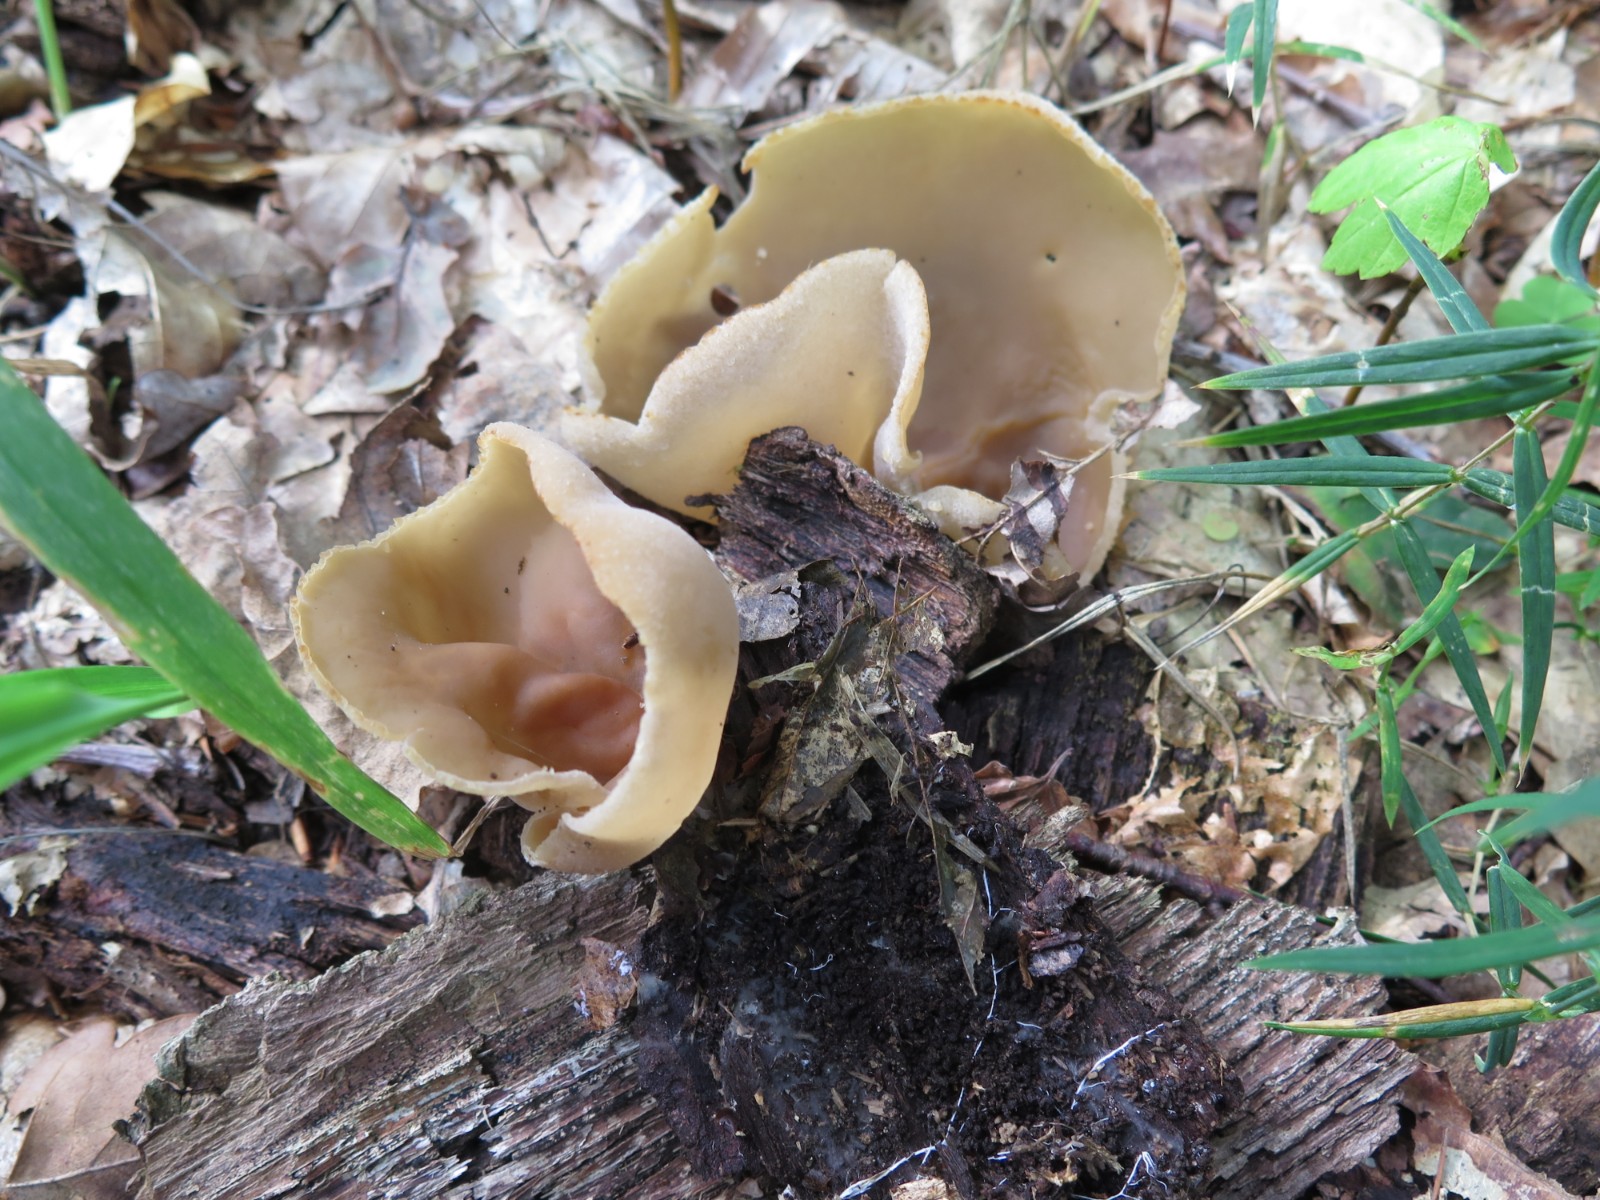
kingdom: Fungi
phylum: Ascomycota
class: Pezizomycetes
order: Pezizales
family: Pezizaceae
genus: Peziza
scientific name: Peziza varia
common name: Ved-bægersvamp
